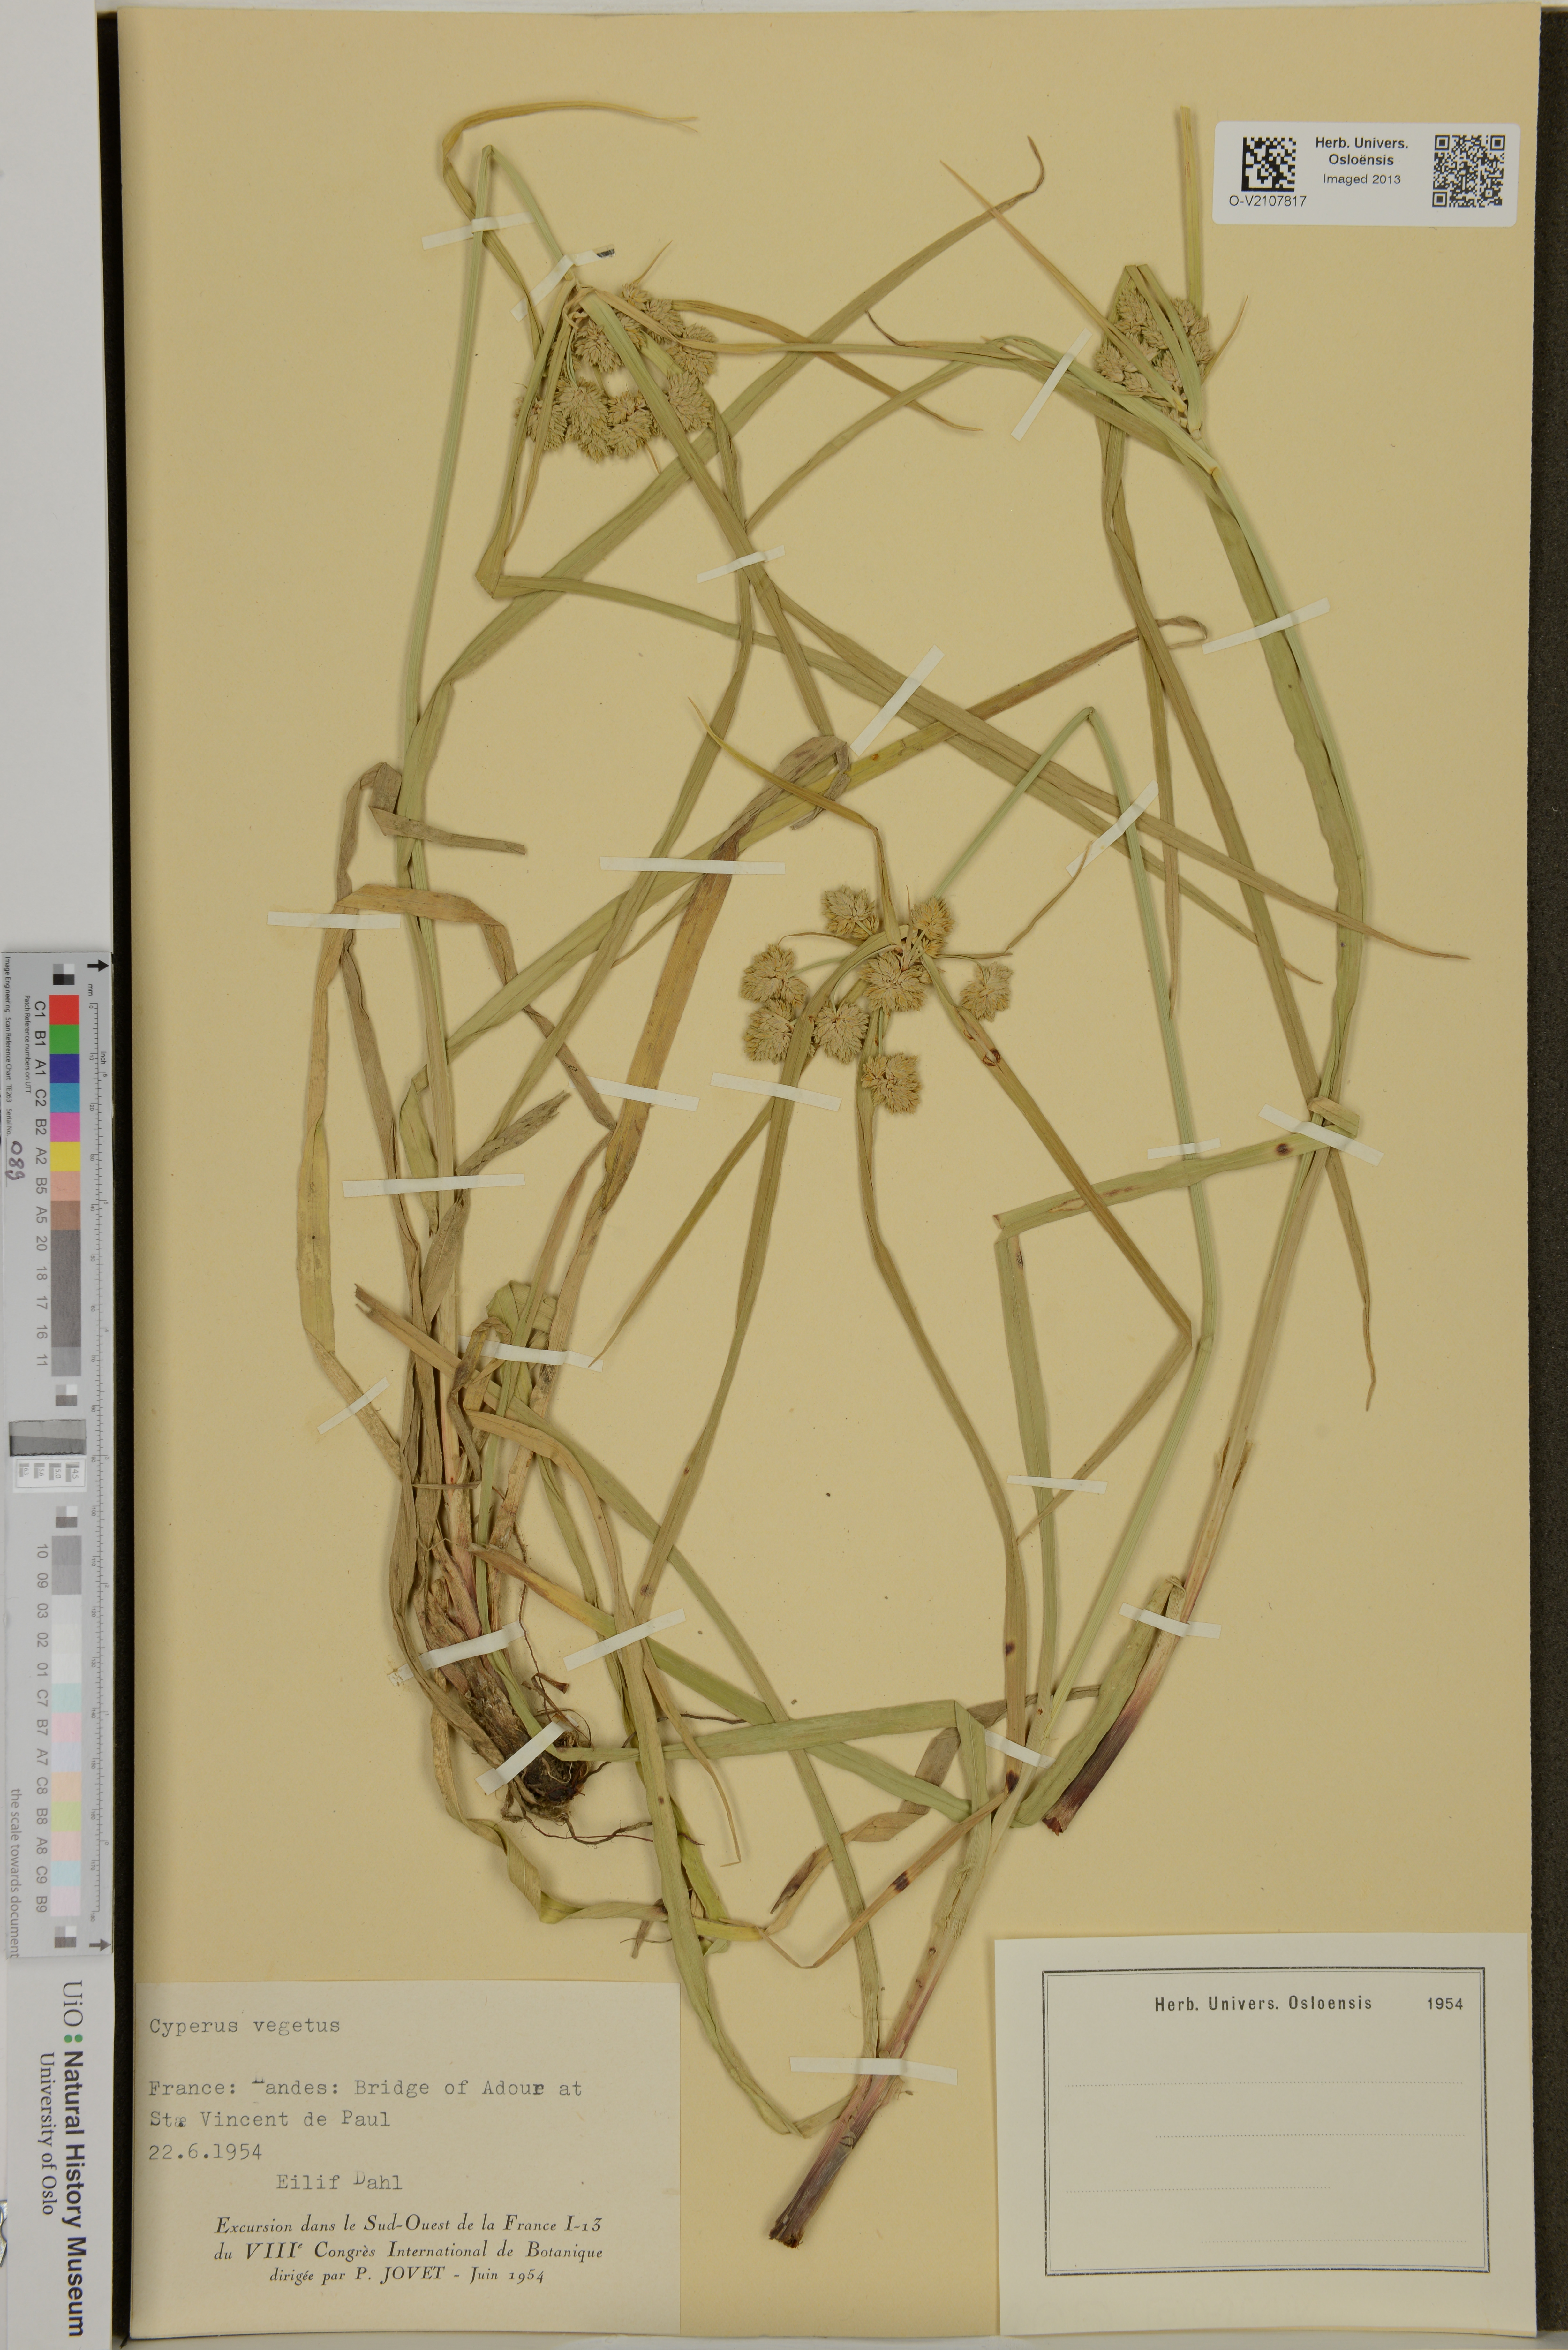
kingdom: Plantae
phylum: Tracheophyta
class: Liliopsida
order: Poales
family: Cyperaceae
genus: Cyperus
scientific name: Cyperus eragrostis
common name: Tall flatsedge
